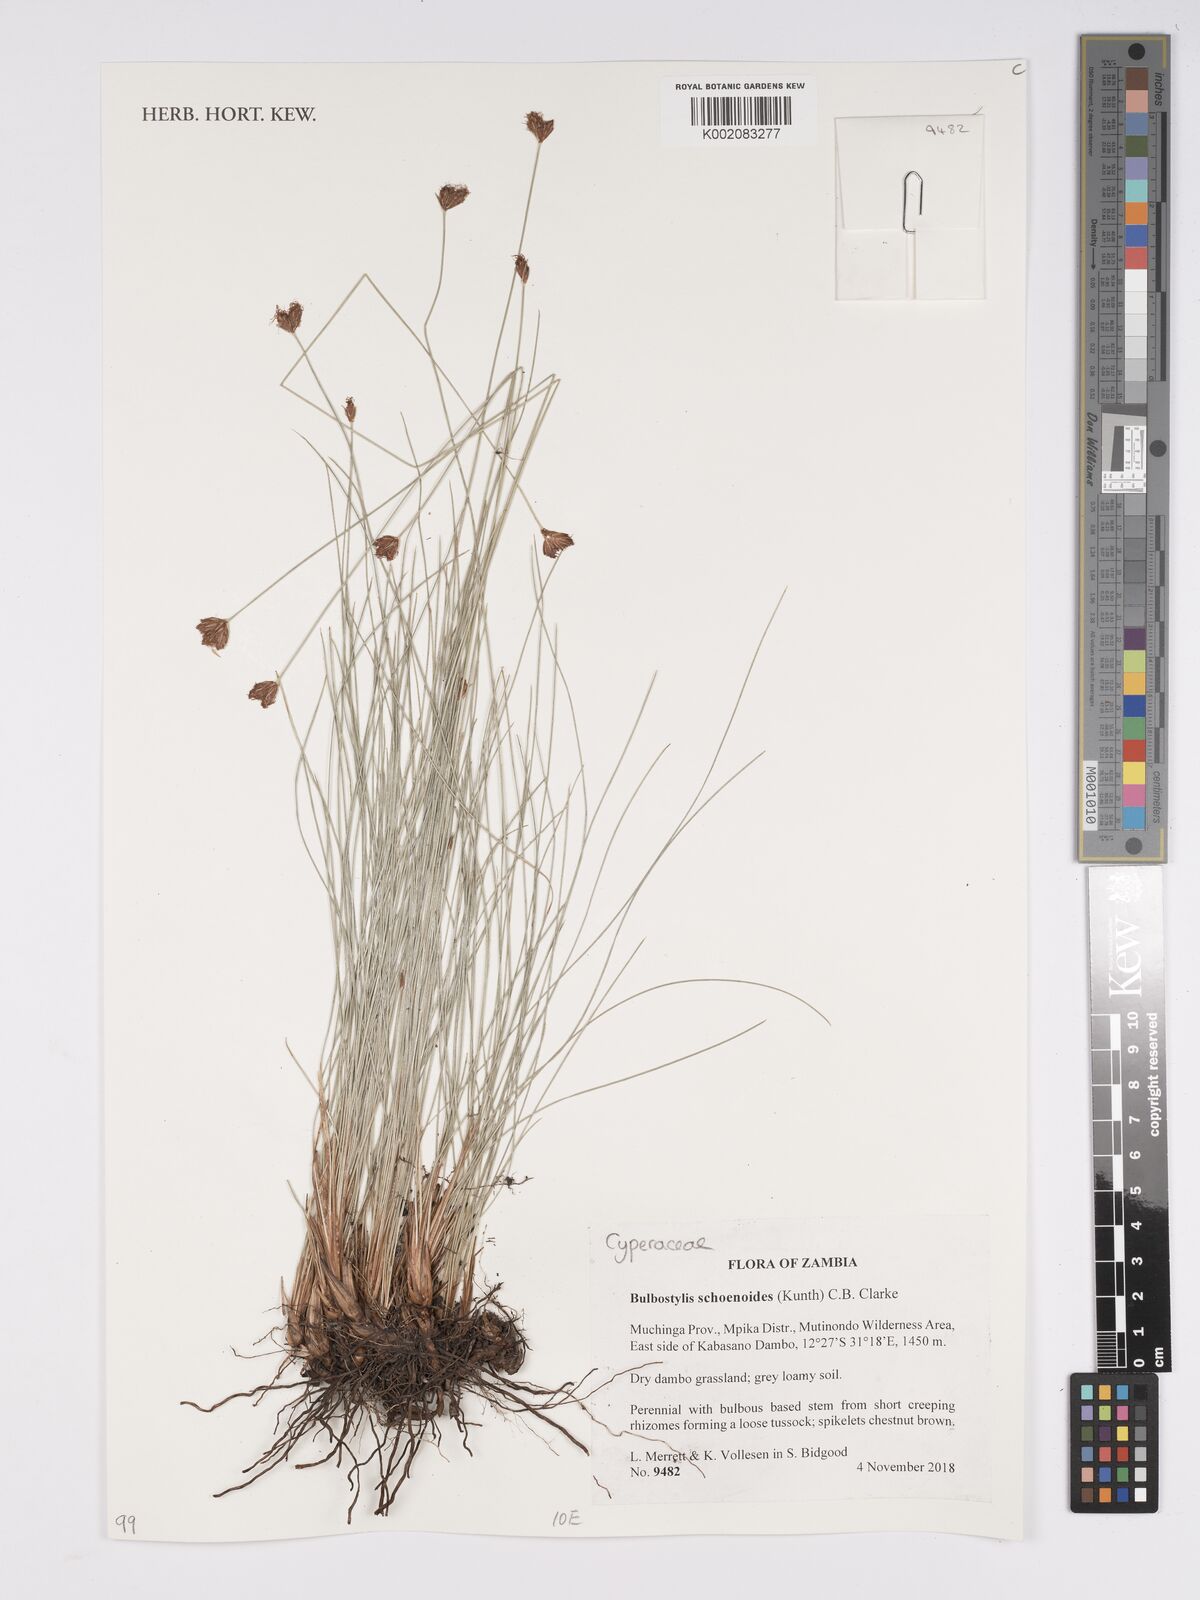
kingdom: Plantae
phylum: Tracheophyta
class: Liliopsida
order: Poales
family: Cyperaceae
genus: Bulbostylis
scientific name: Bulbostylis schoenoides
